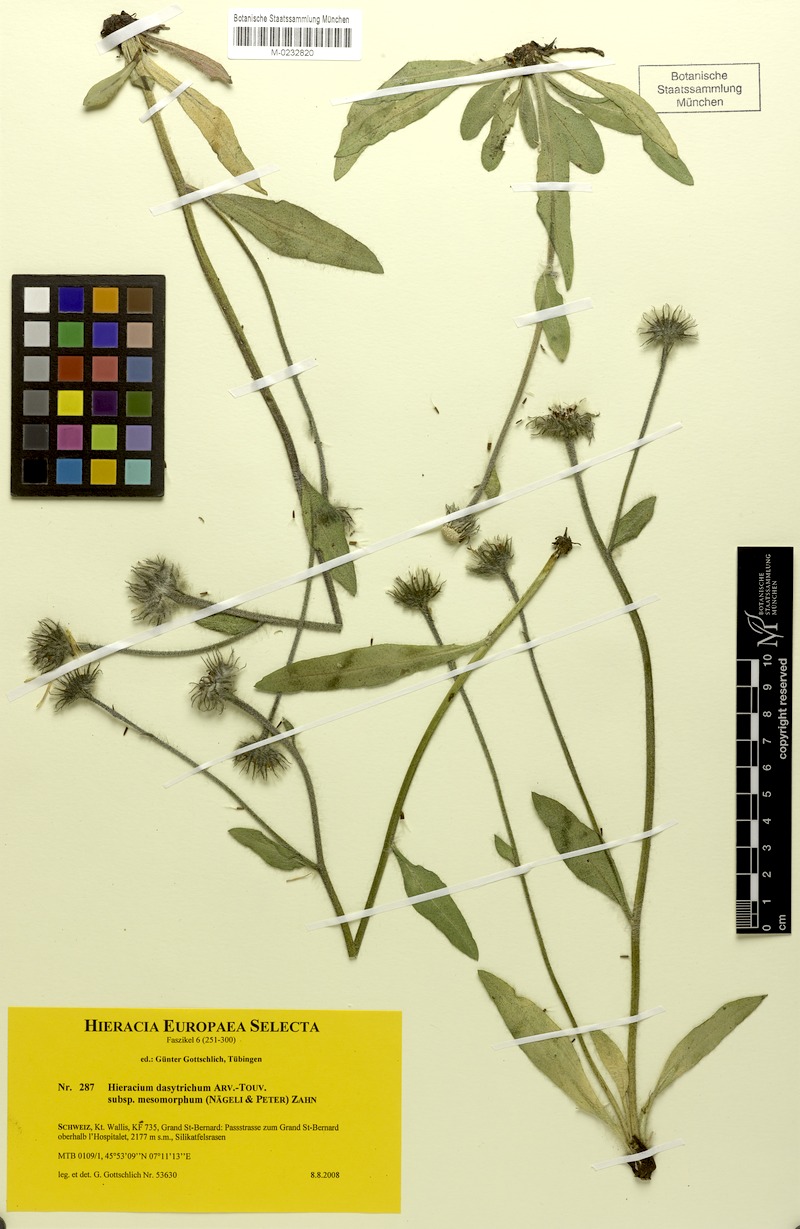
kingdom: Plantae
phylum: Tracheophyta
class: Magnoliopsida
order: Asterales
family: Asteraceae
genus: Hieracium
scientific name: Hieracium dasytrichum
